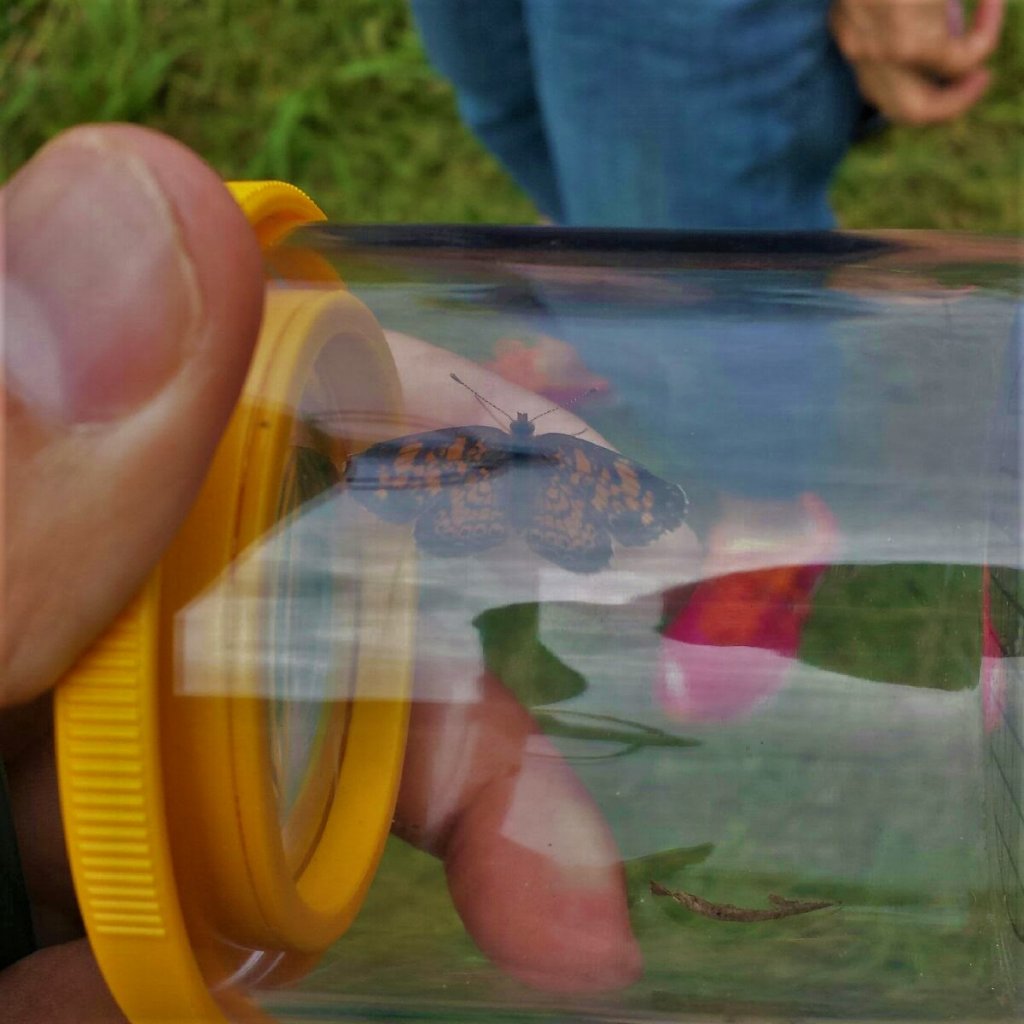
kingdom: Animalia
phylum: Arthropoda
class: Insecta
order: Lepidoptera
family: Nymphalidae
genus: Phyciodes
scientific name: Phyciodes
